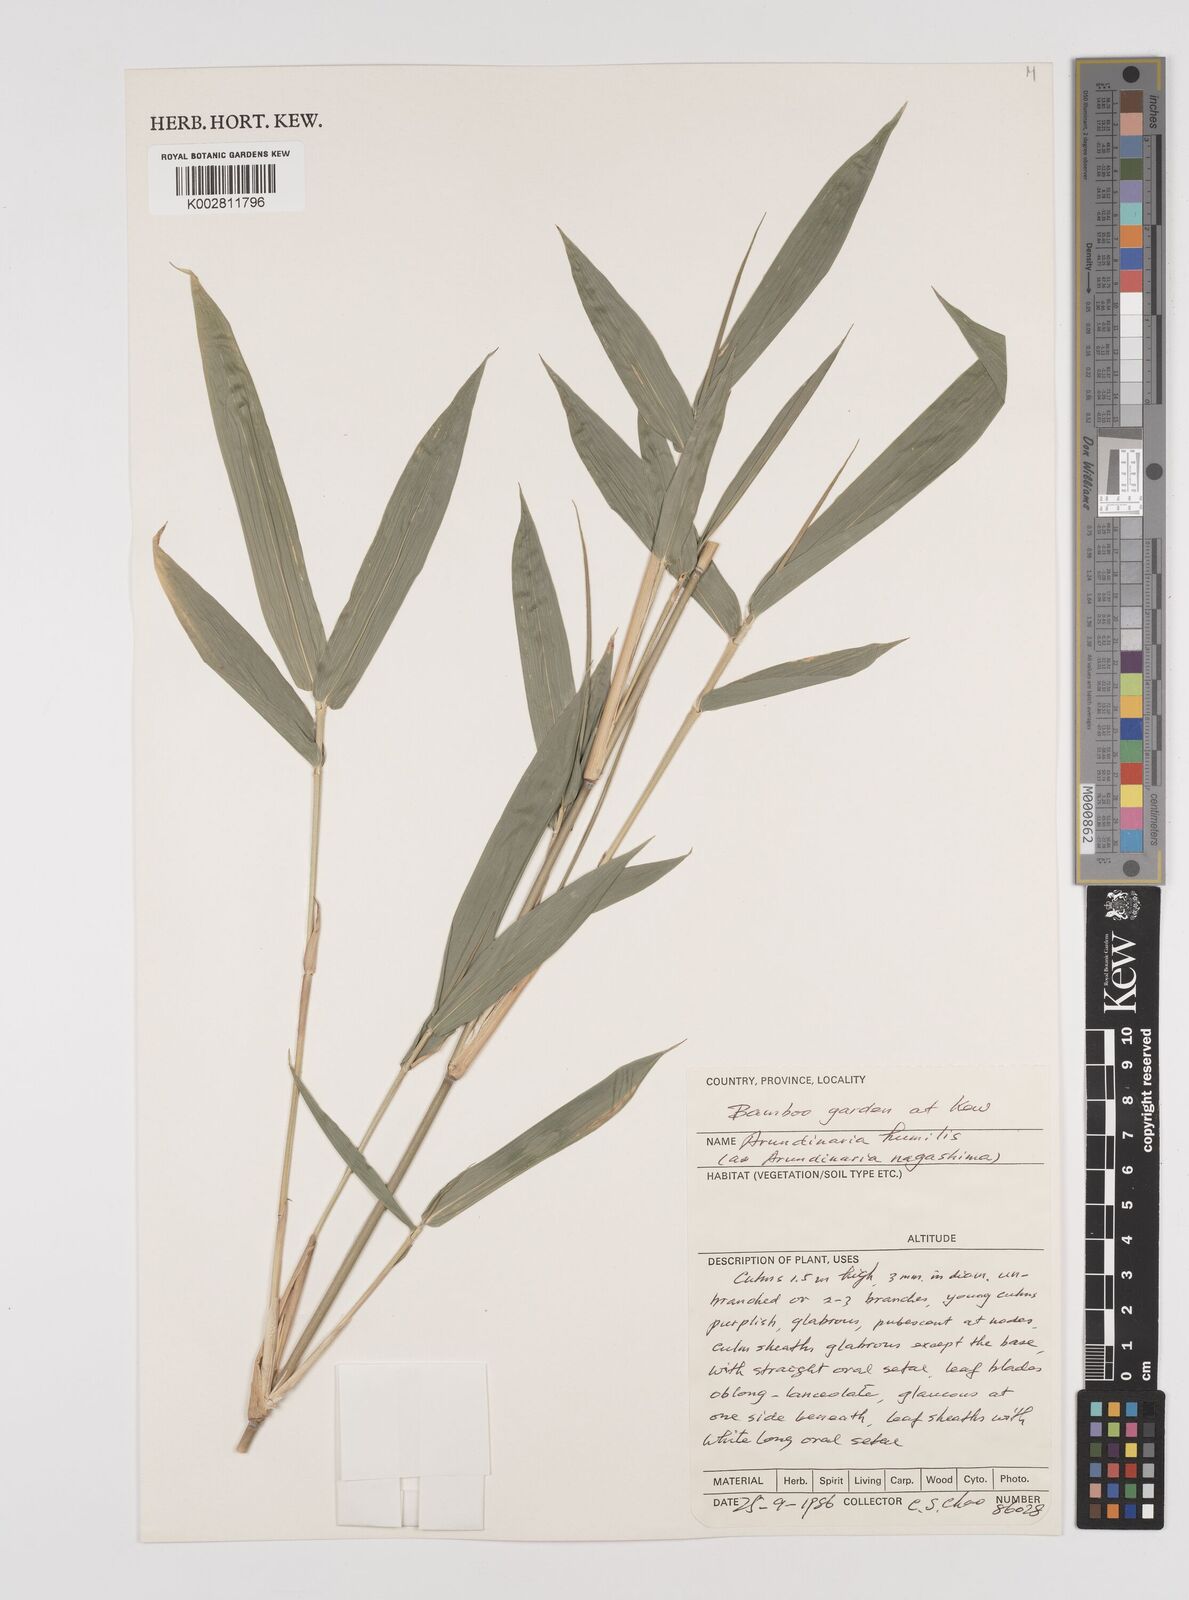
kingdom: Plantae
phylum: Tracheophyta
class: Liliopsida
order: Poales
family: Poaceae
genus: Pseudosasa
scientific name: Pseudosasa humilis
